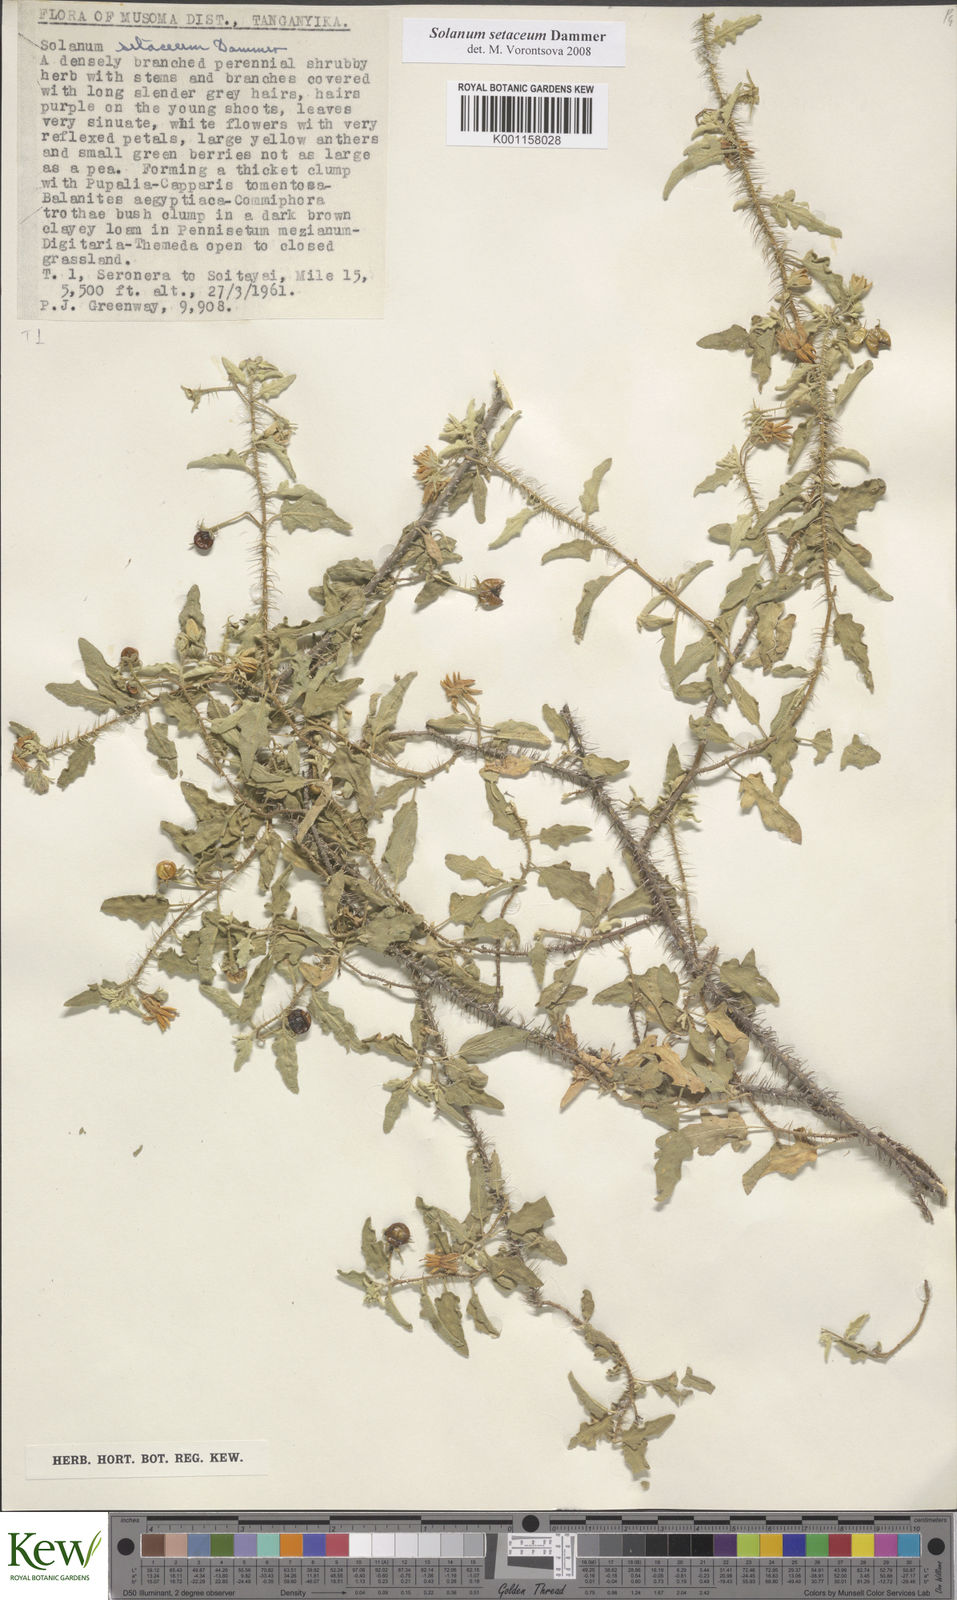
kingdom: Plantae
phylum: Tracheophyta
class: Magnoliopsida
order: Solanales
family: Solanaceae
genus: Solanum
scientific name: Solanum setaceum
